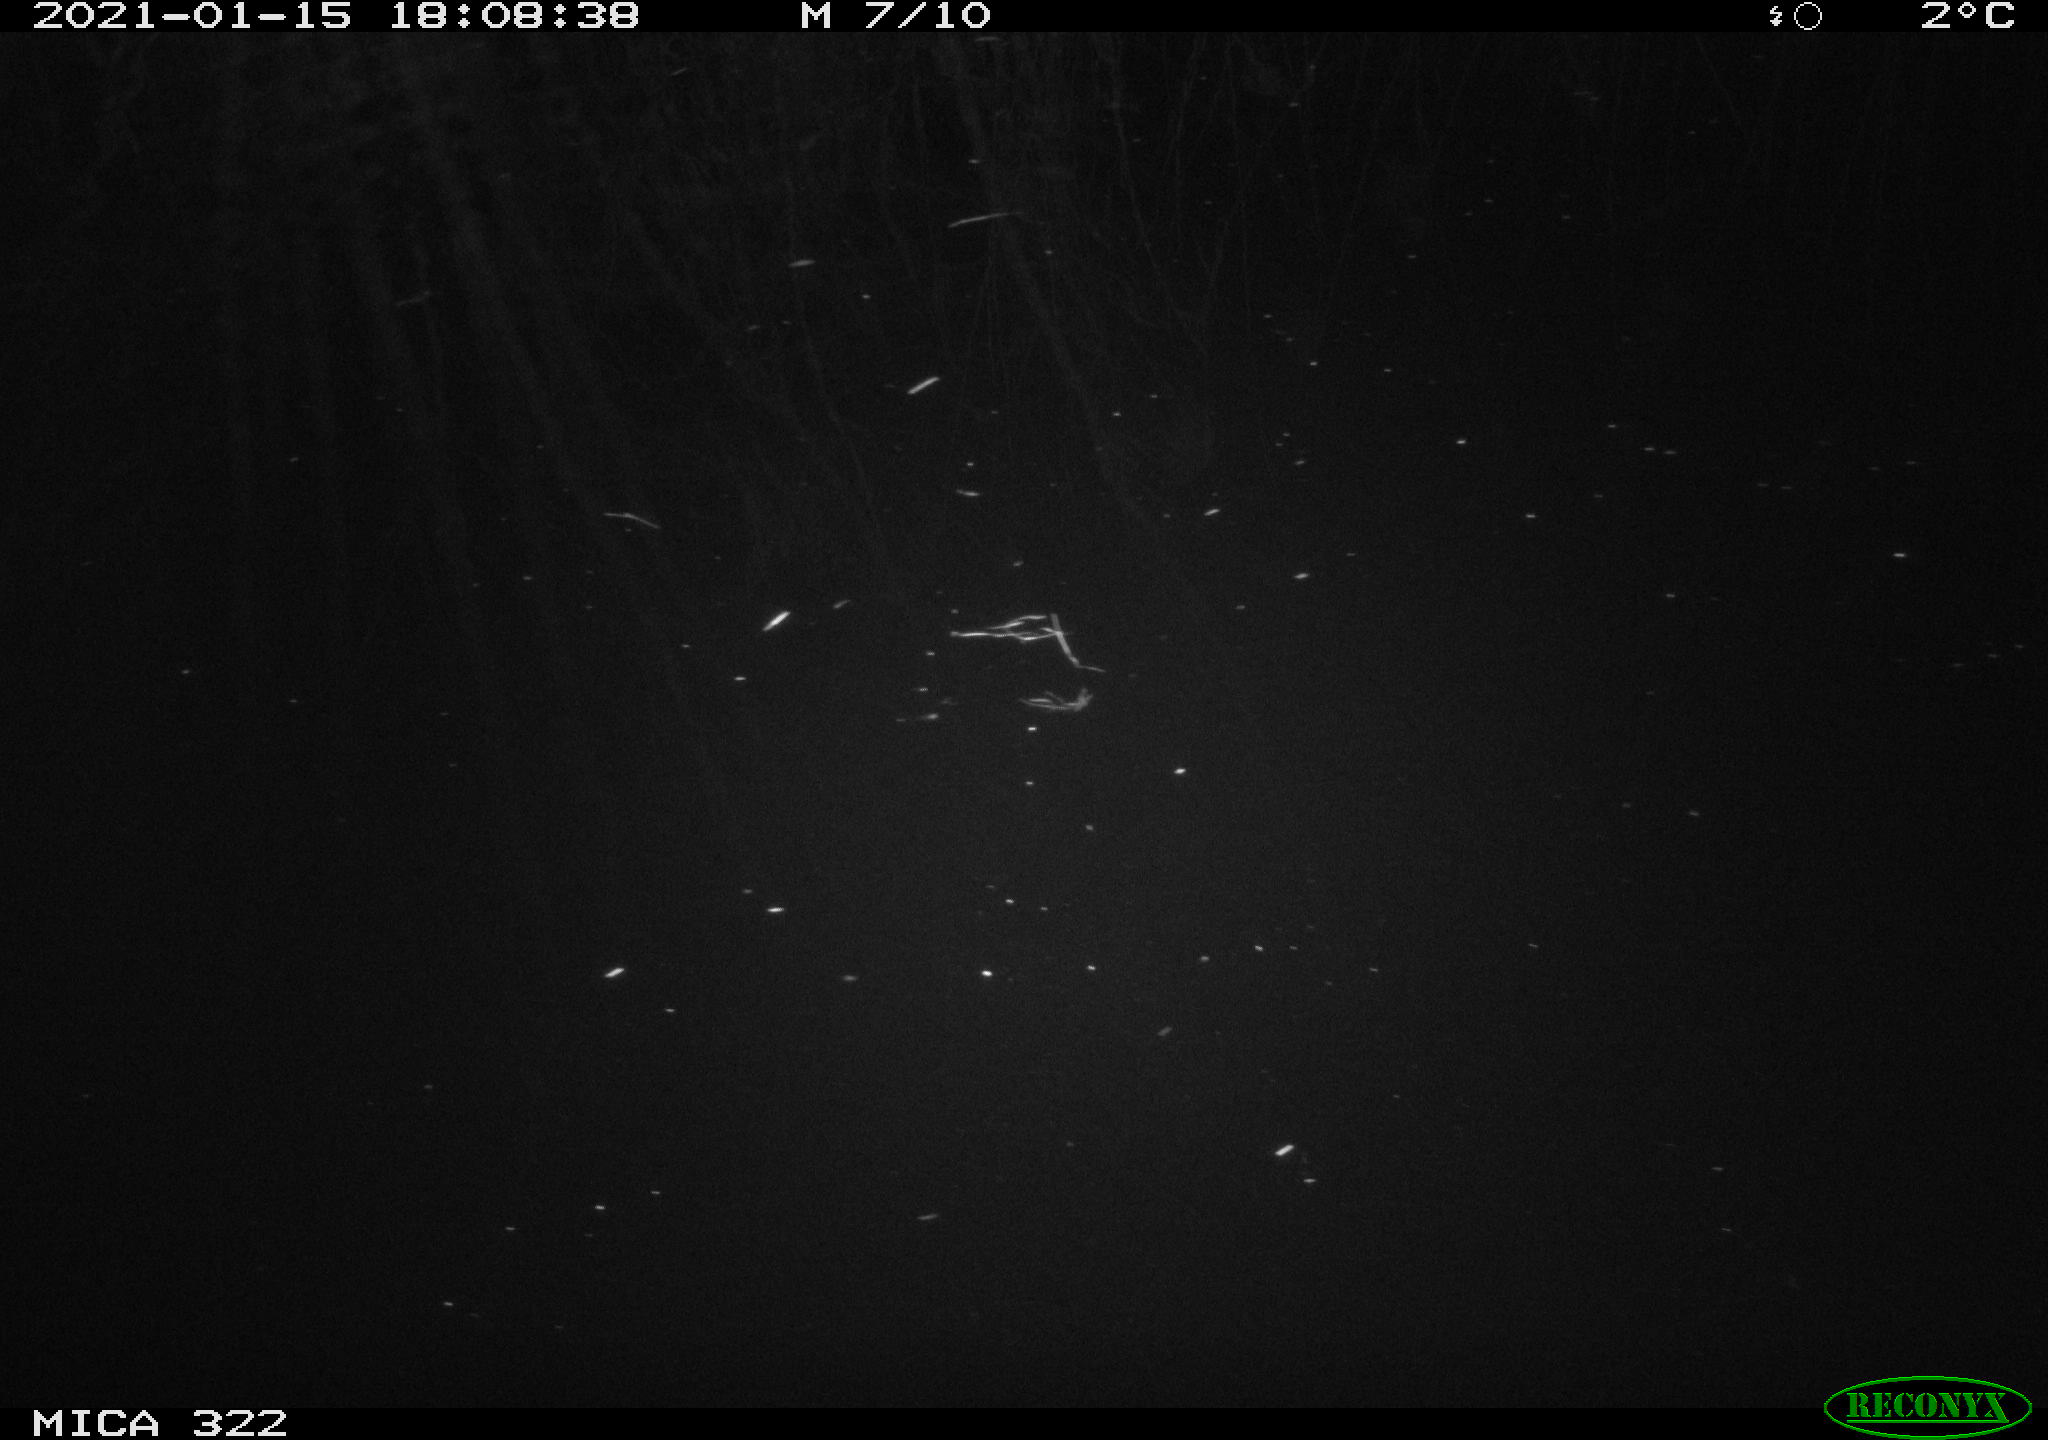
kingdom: Animalia
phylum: Chordata
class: Aves
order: Gruiformes
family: Rallidae
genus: Fulica
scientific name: Fulica atra
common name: Eurasian coot
